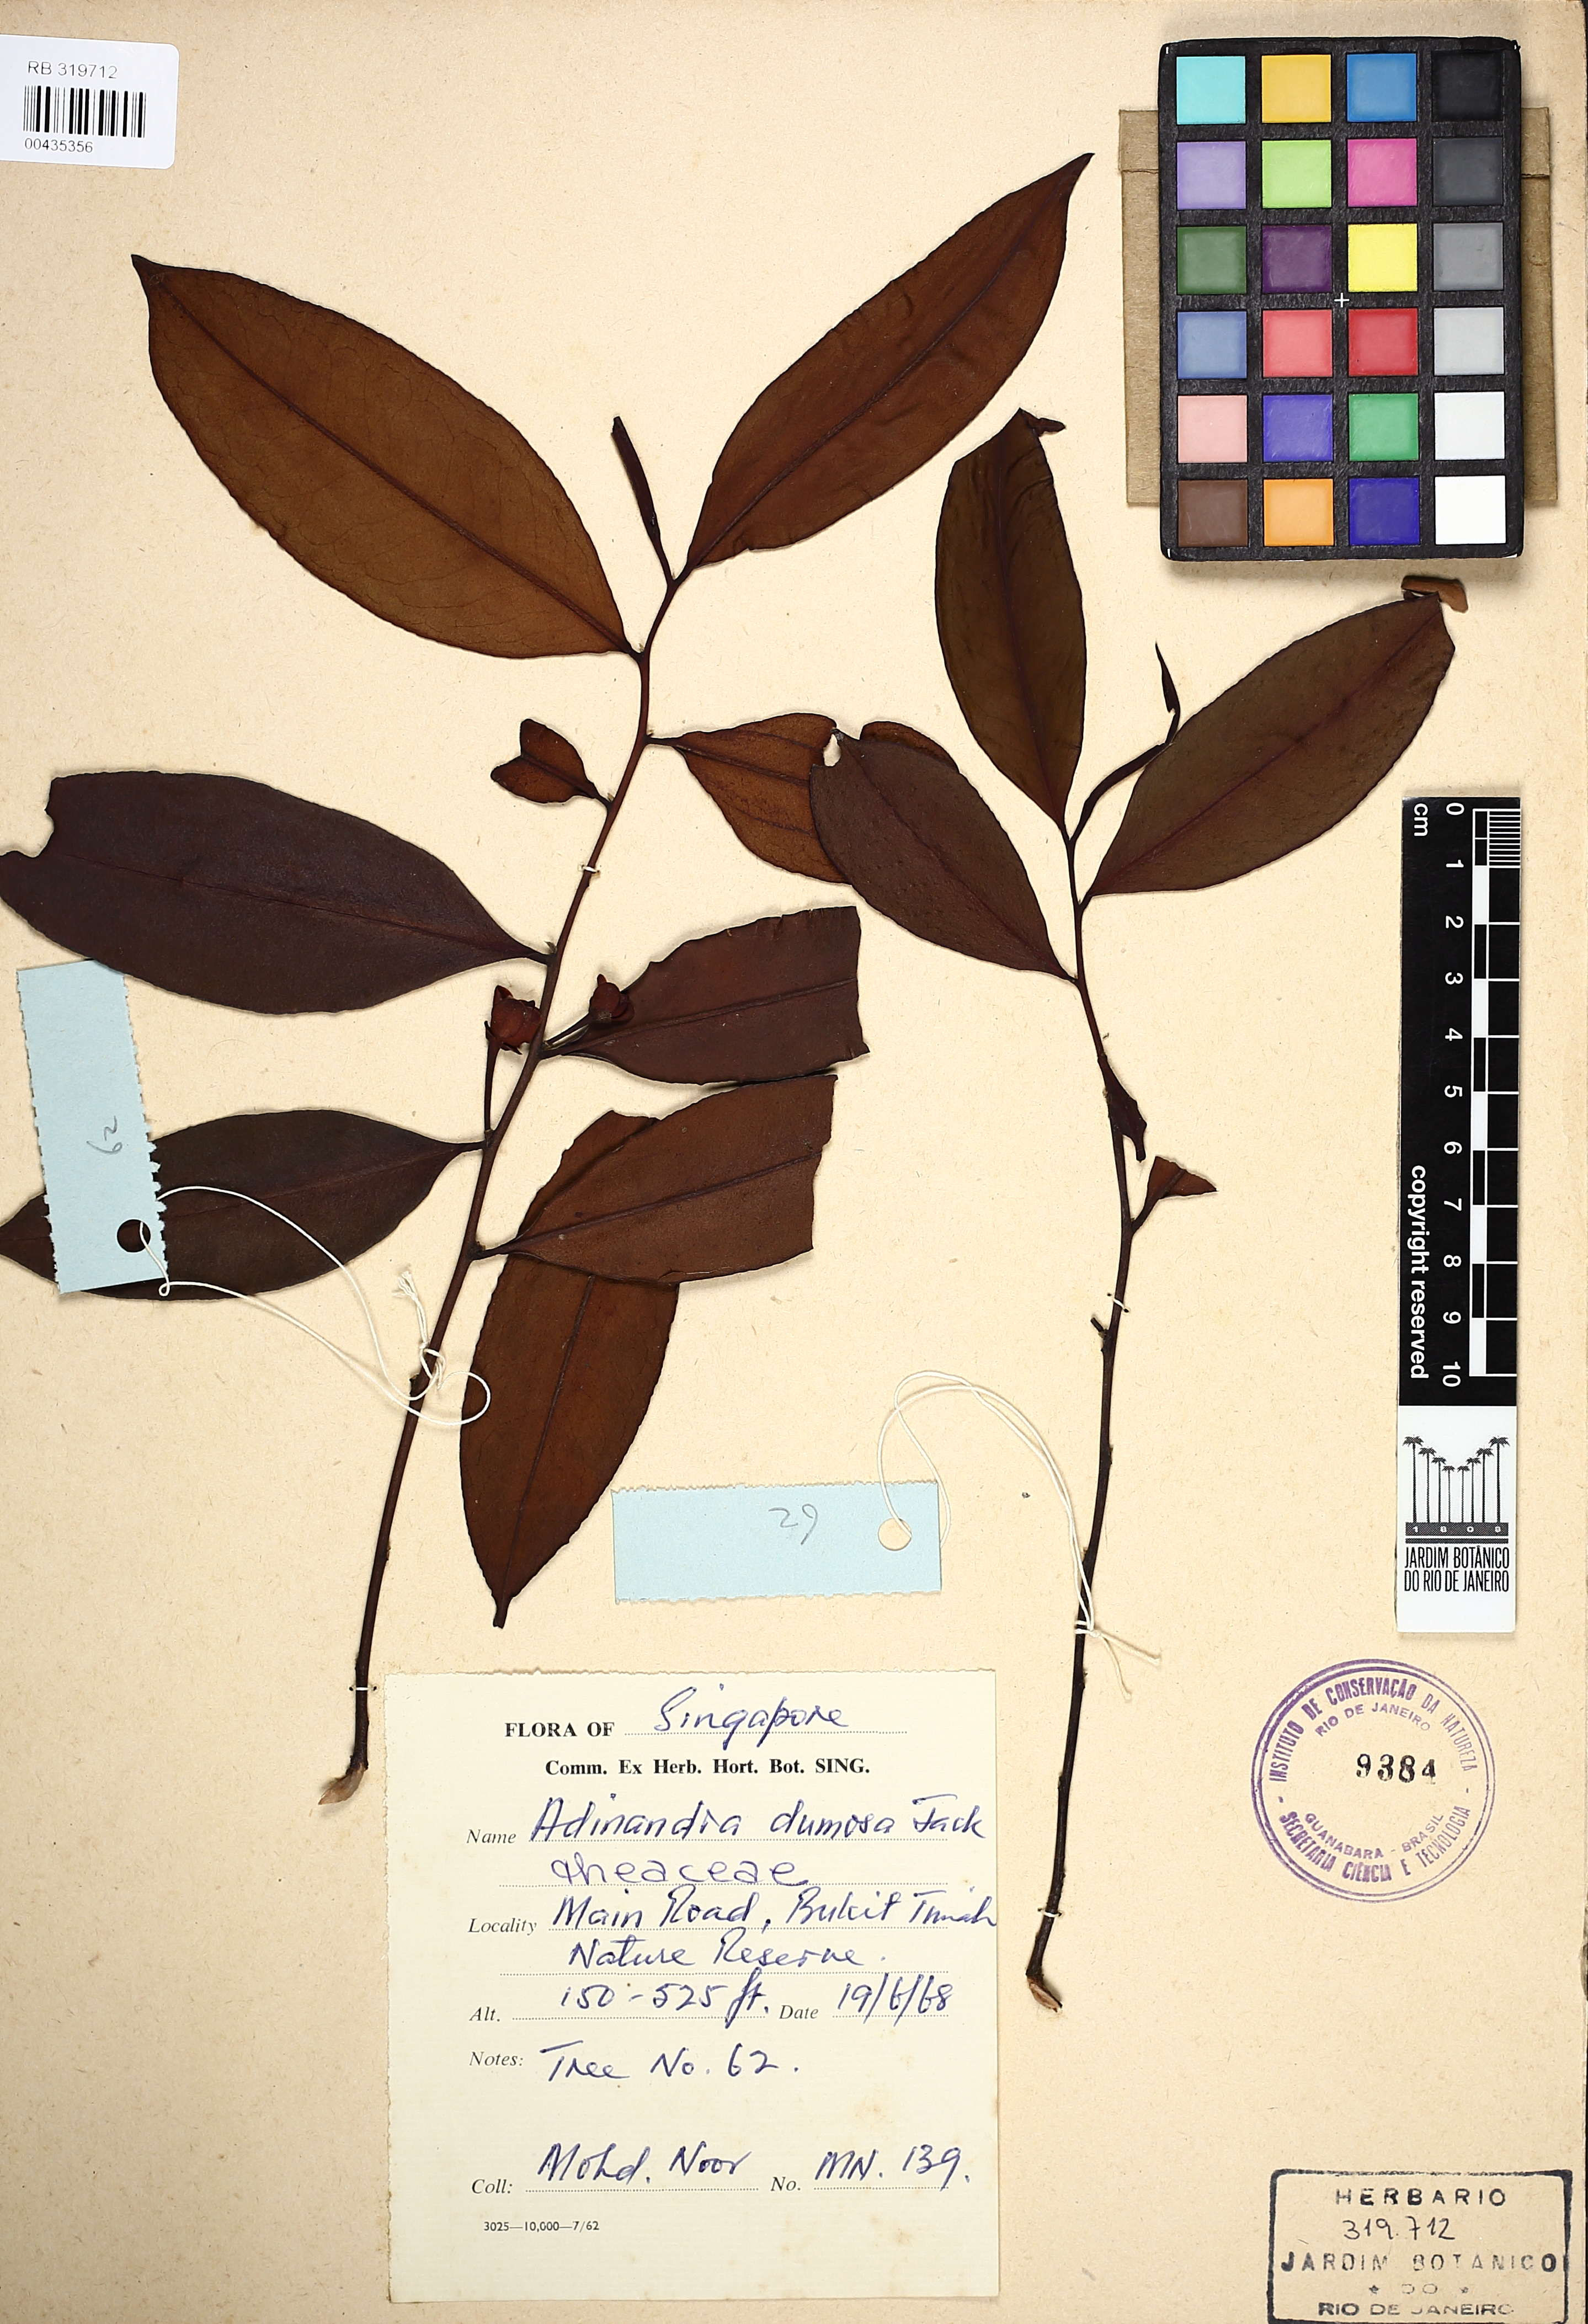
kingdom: Plantae
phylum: Tracheophyta
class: Magnoliopsida
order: Ericales
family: Pentaphylacaceae
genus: Adinandra
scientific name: Adinandra dumosa
